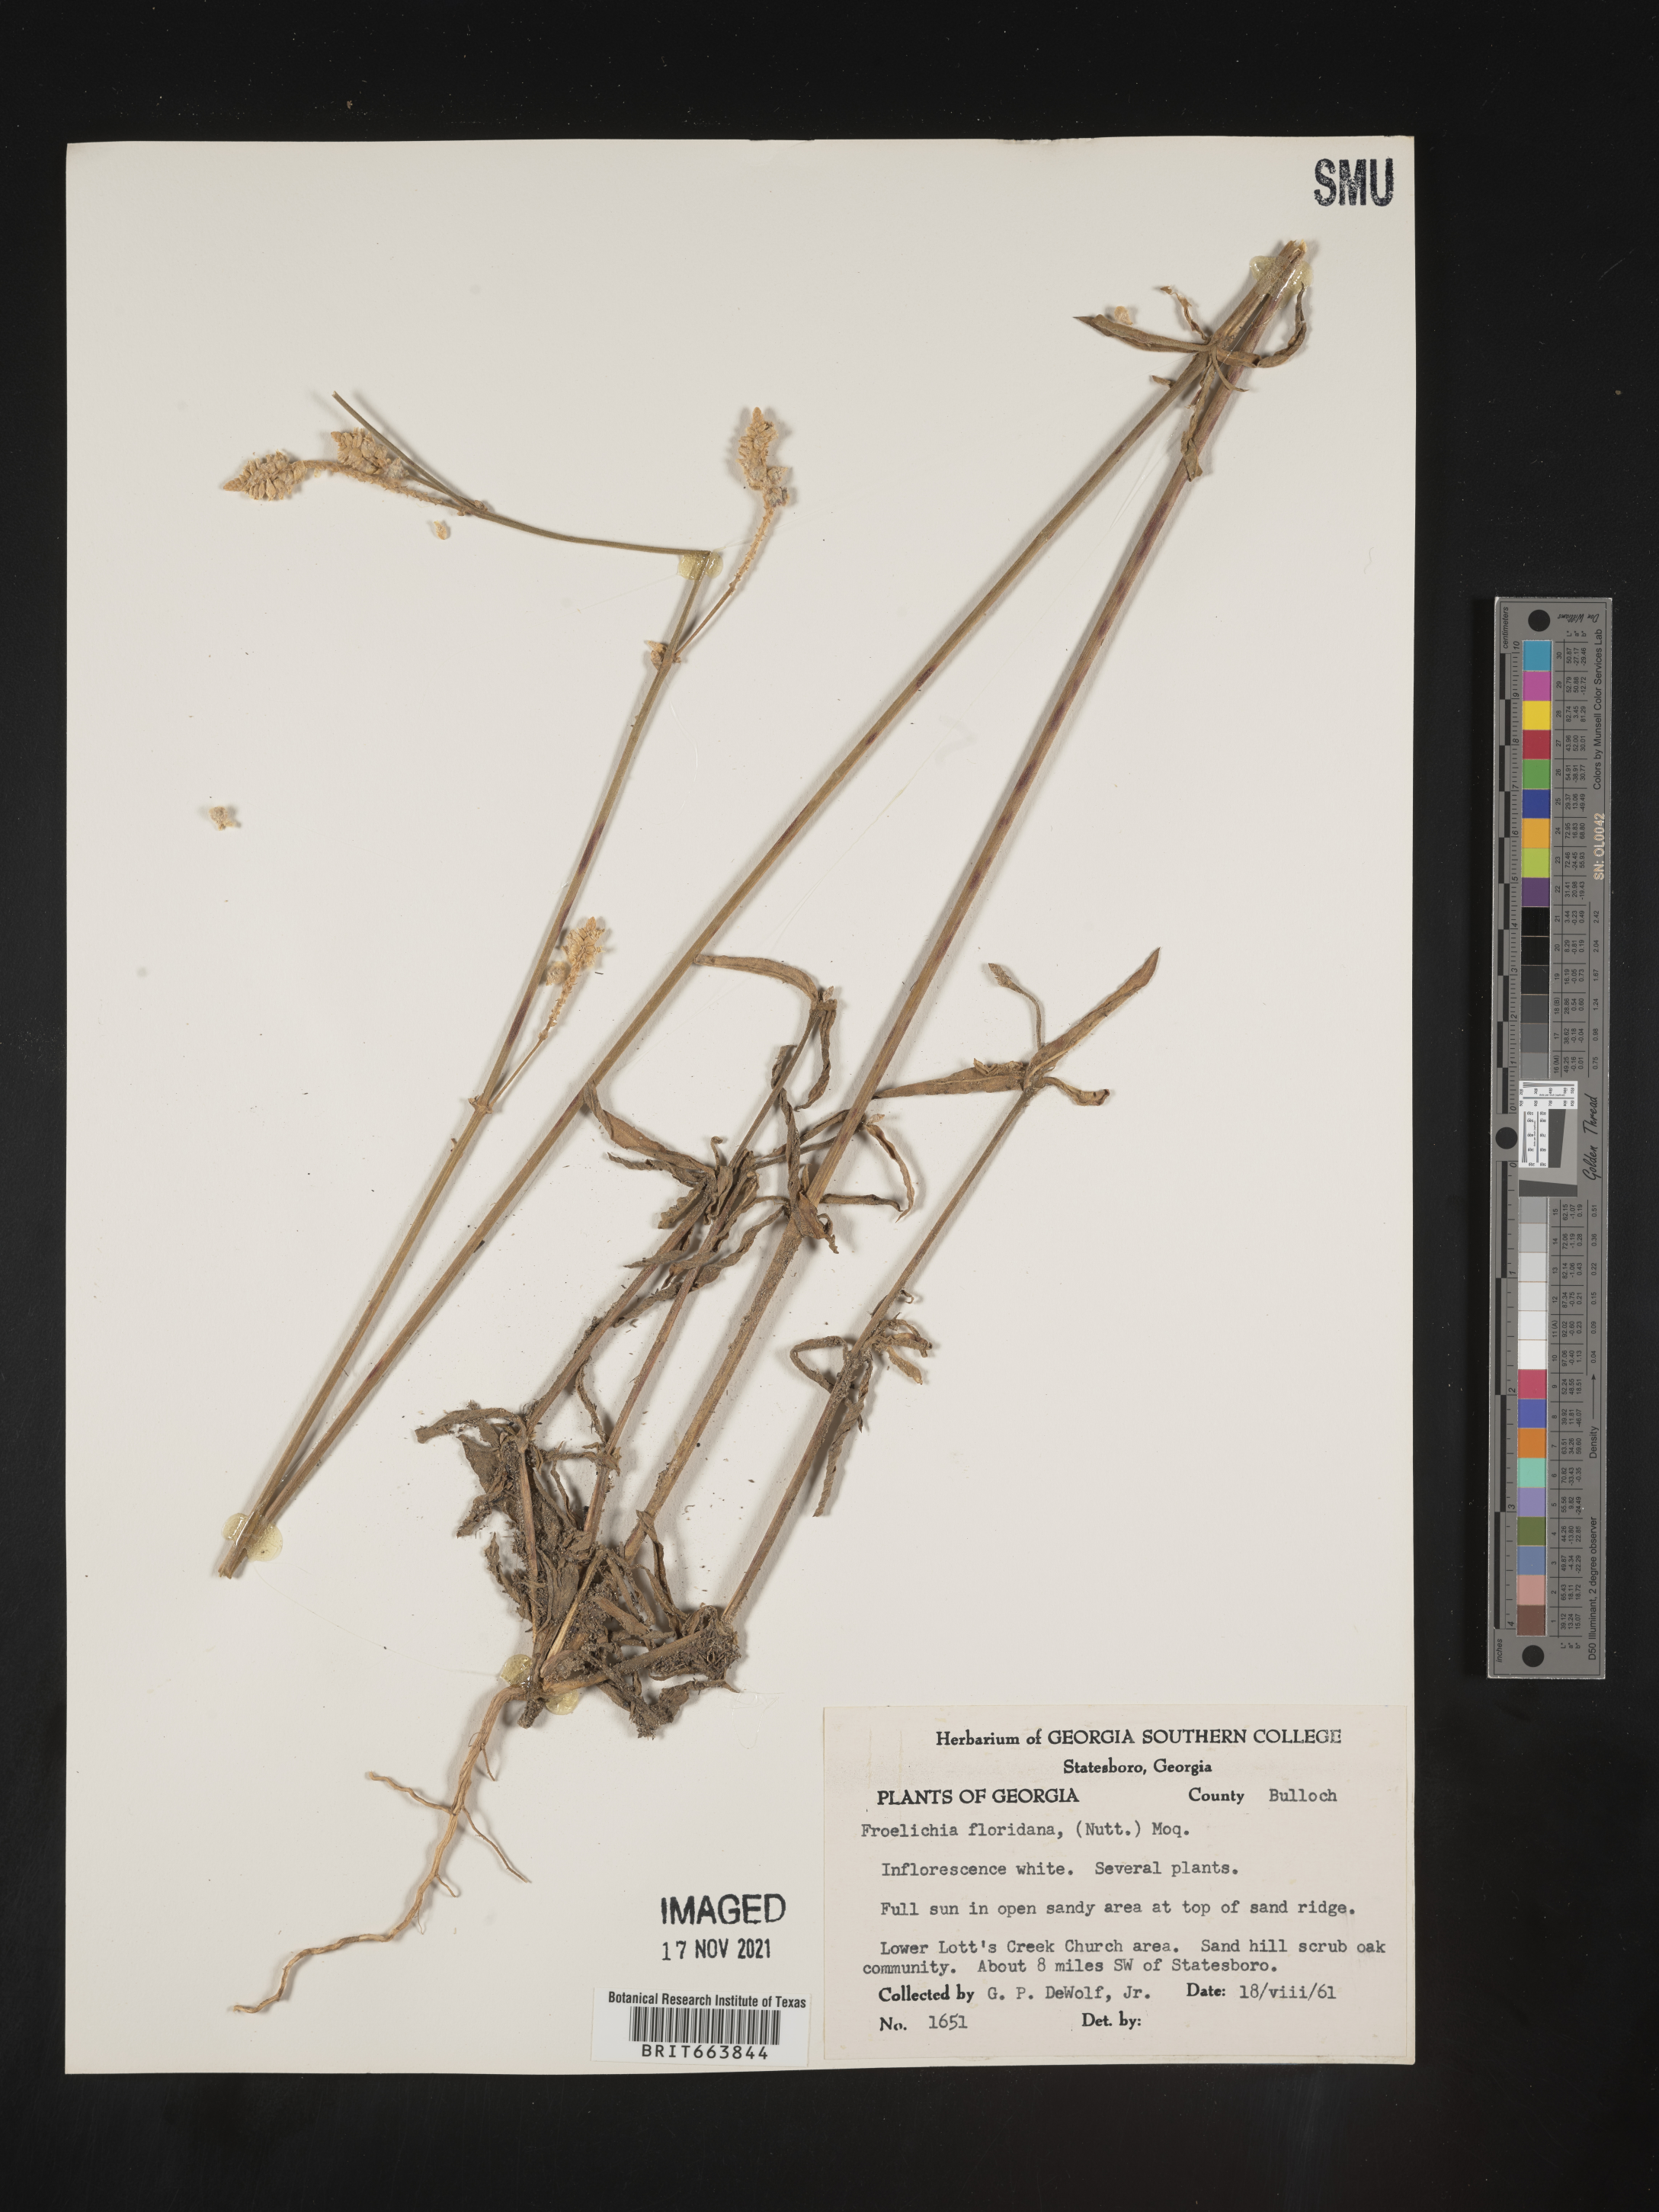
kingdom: Plantae
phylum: Tracheophyta
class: Magnoliopsida
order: Caryophyllales
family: Amaranthaceae
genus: Froelichia
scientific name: Froelichia floridana
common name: Florida snake-cotton
